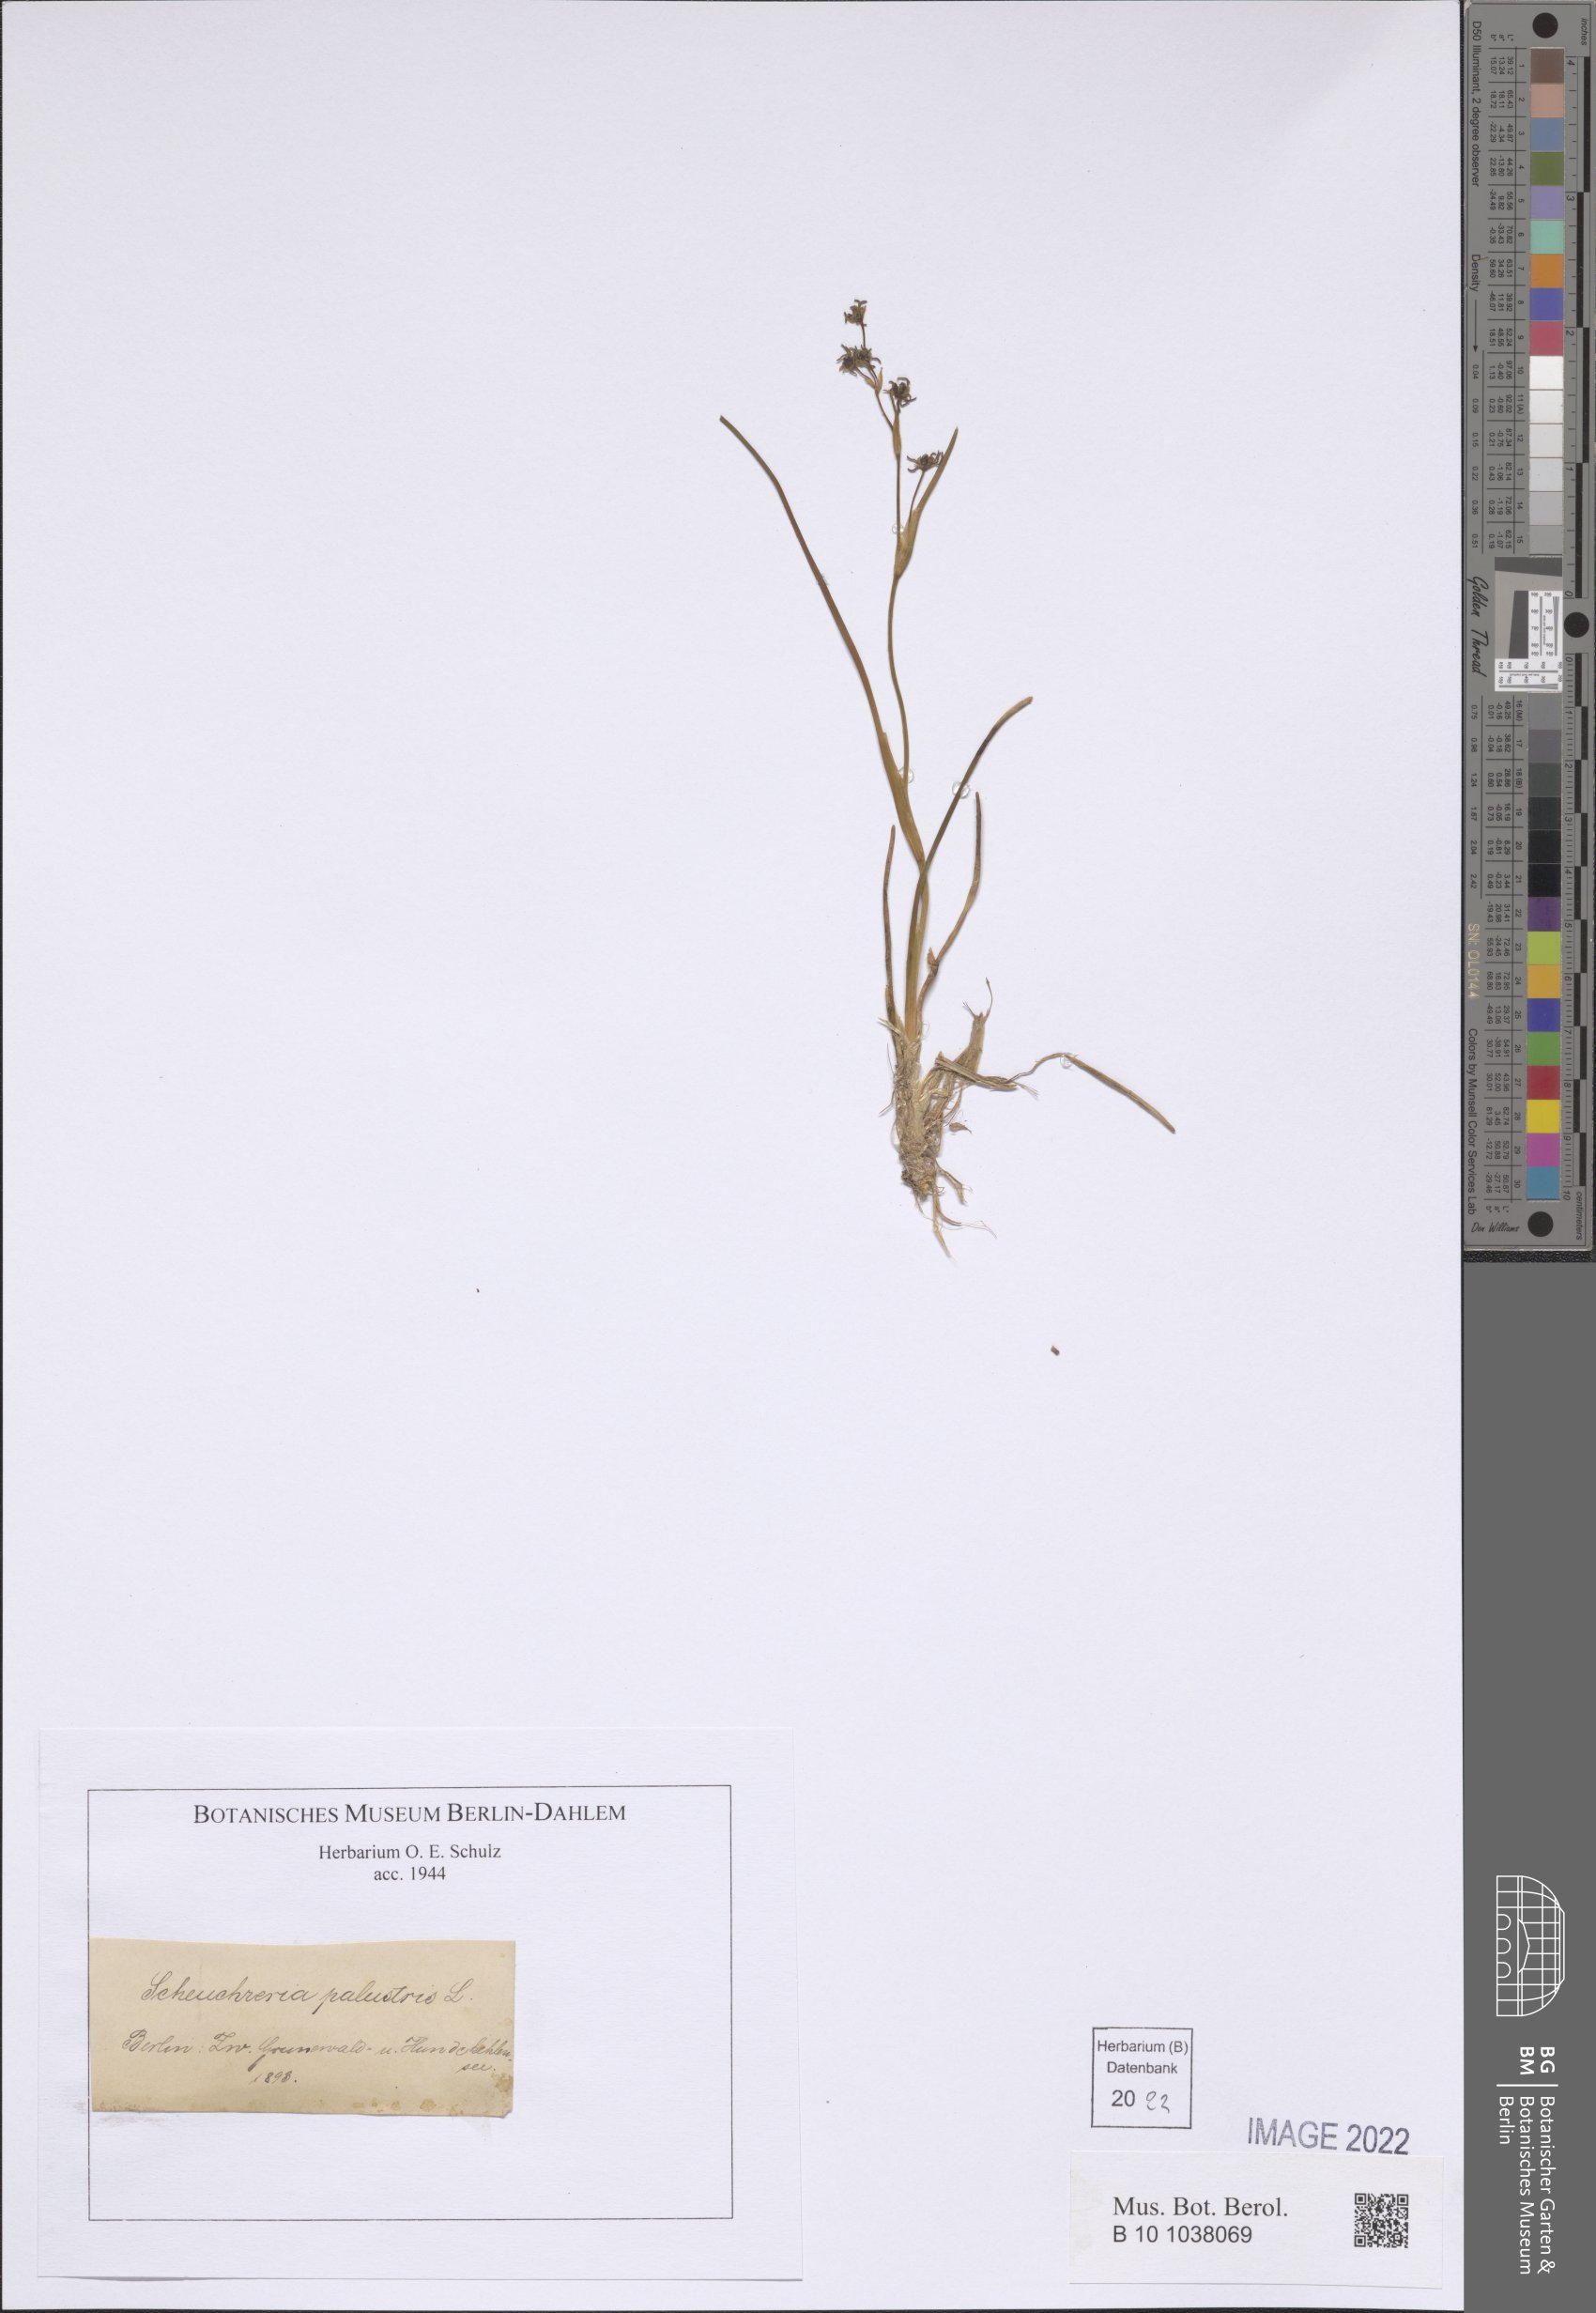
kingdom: Plantae
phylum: Tracheophyta
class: Liliopsida
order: Alismatales
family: Scheuchzeriaceae
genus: Scheuchzeria
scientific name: Scheuchzeria palustris
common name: Rannoch-rush
